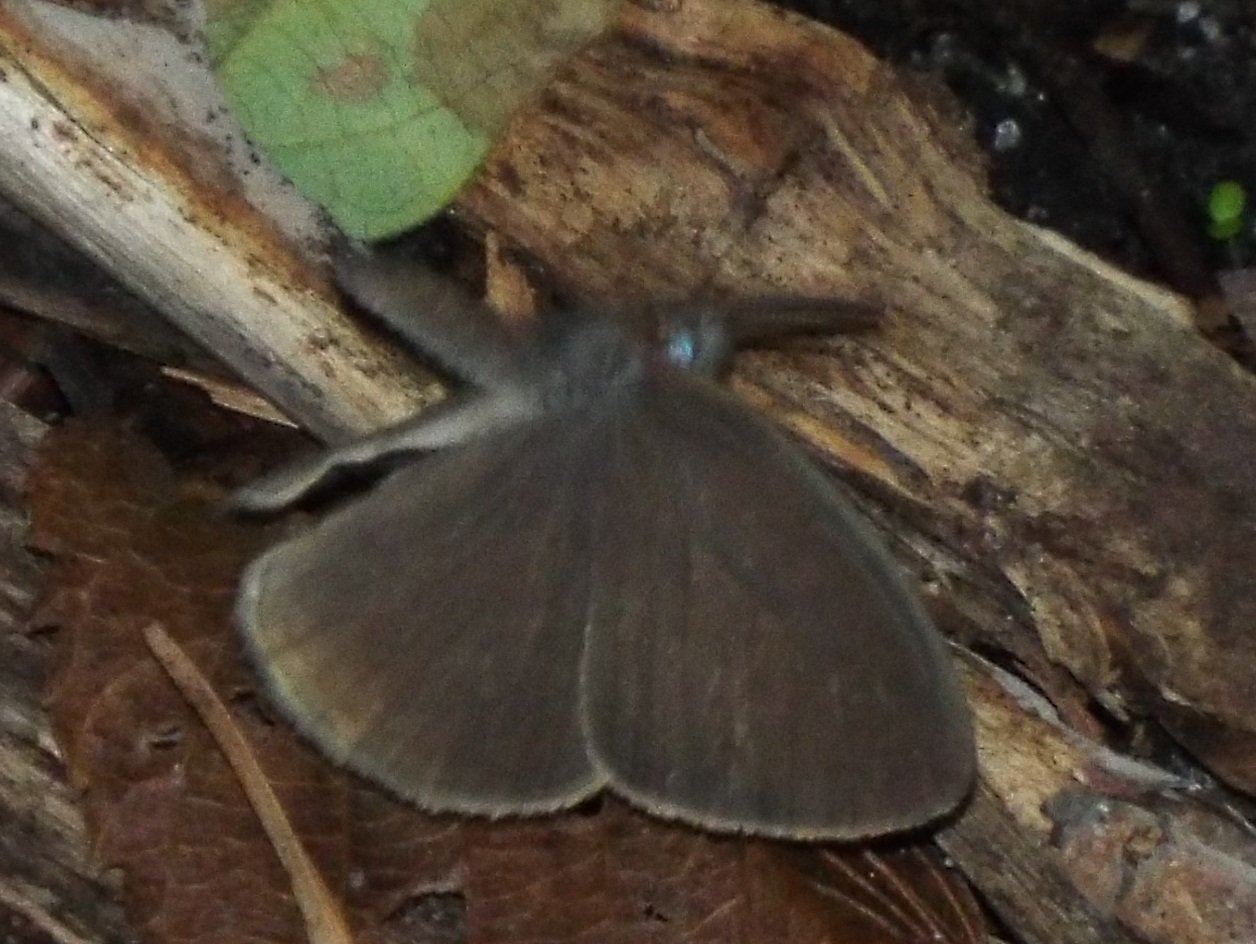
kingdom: Animalia
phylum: Arthropoda
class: Insecta
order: Lepidoptera
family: Nymphalidae
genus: Hermeuptychia
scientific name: Hermeuptychia
